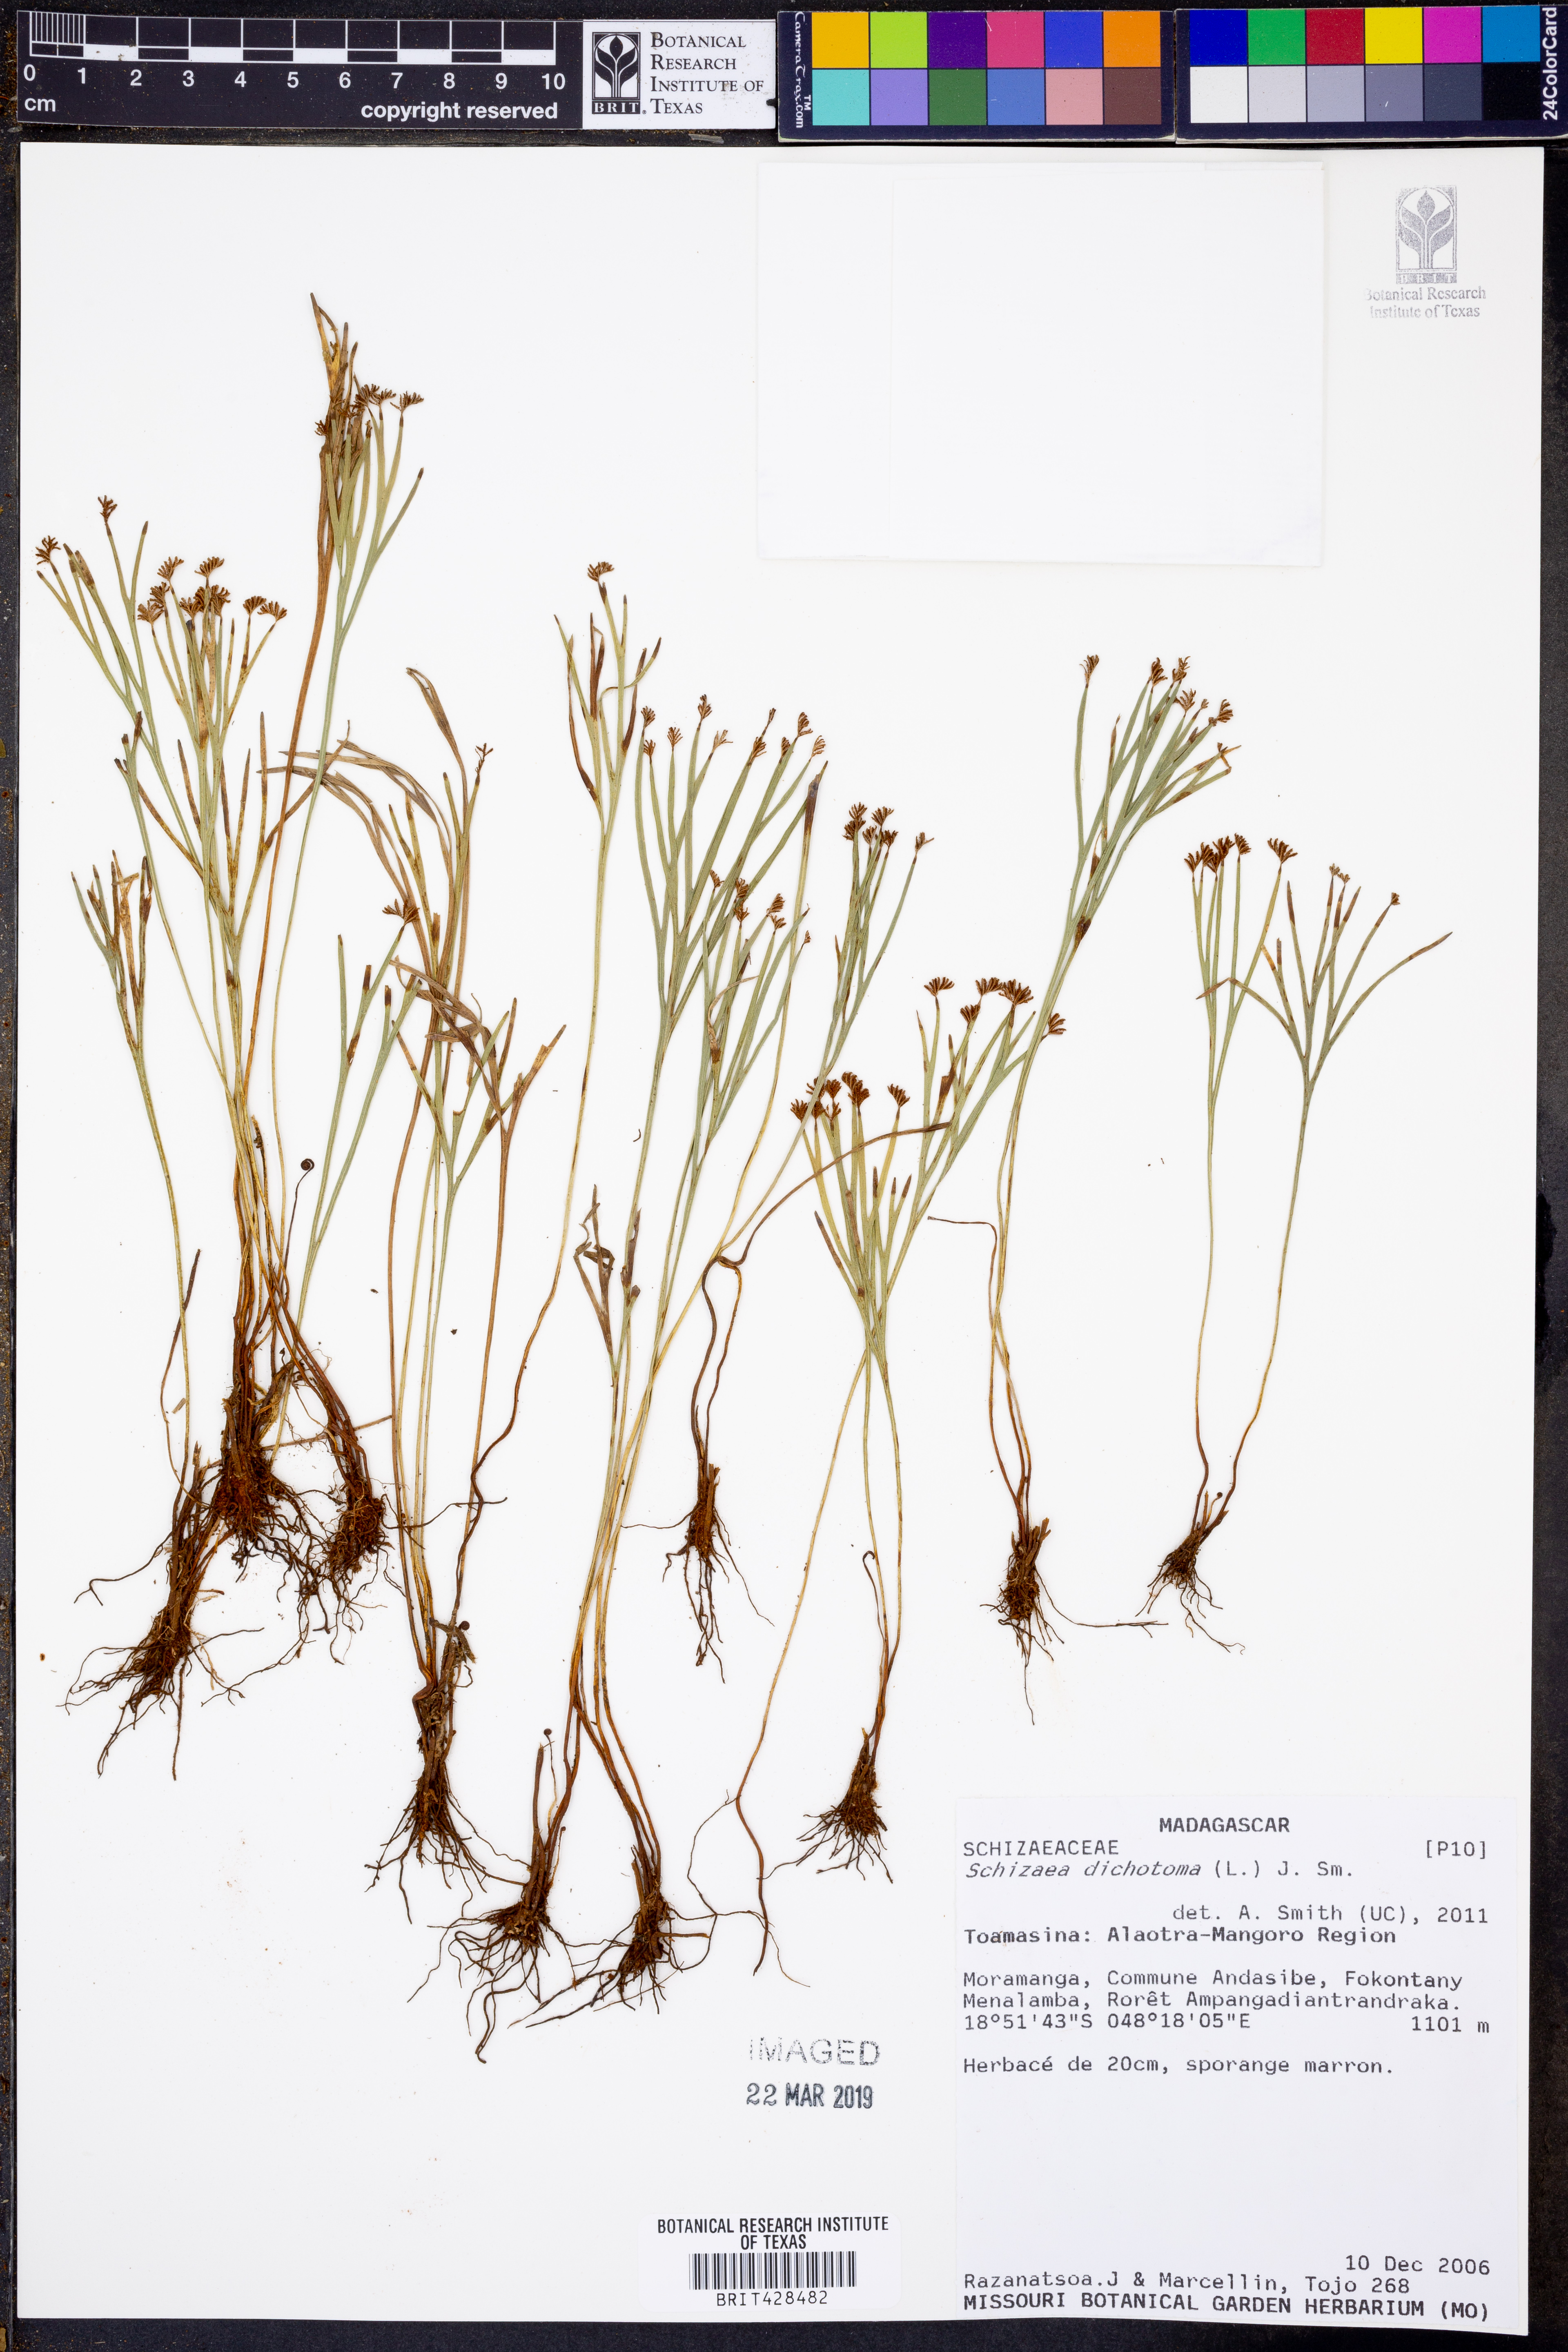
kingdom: Plantae
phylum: Tracheophyta
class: Polypodiopsida
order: Schizaeales
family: Schizaeaceae
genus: Schizaea
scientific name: Schizaea dichotoma
